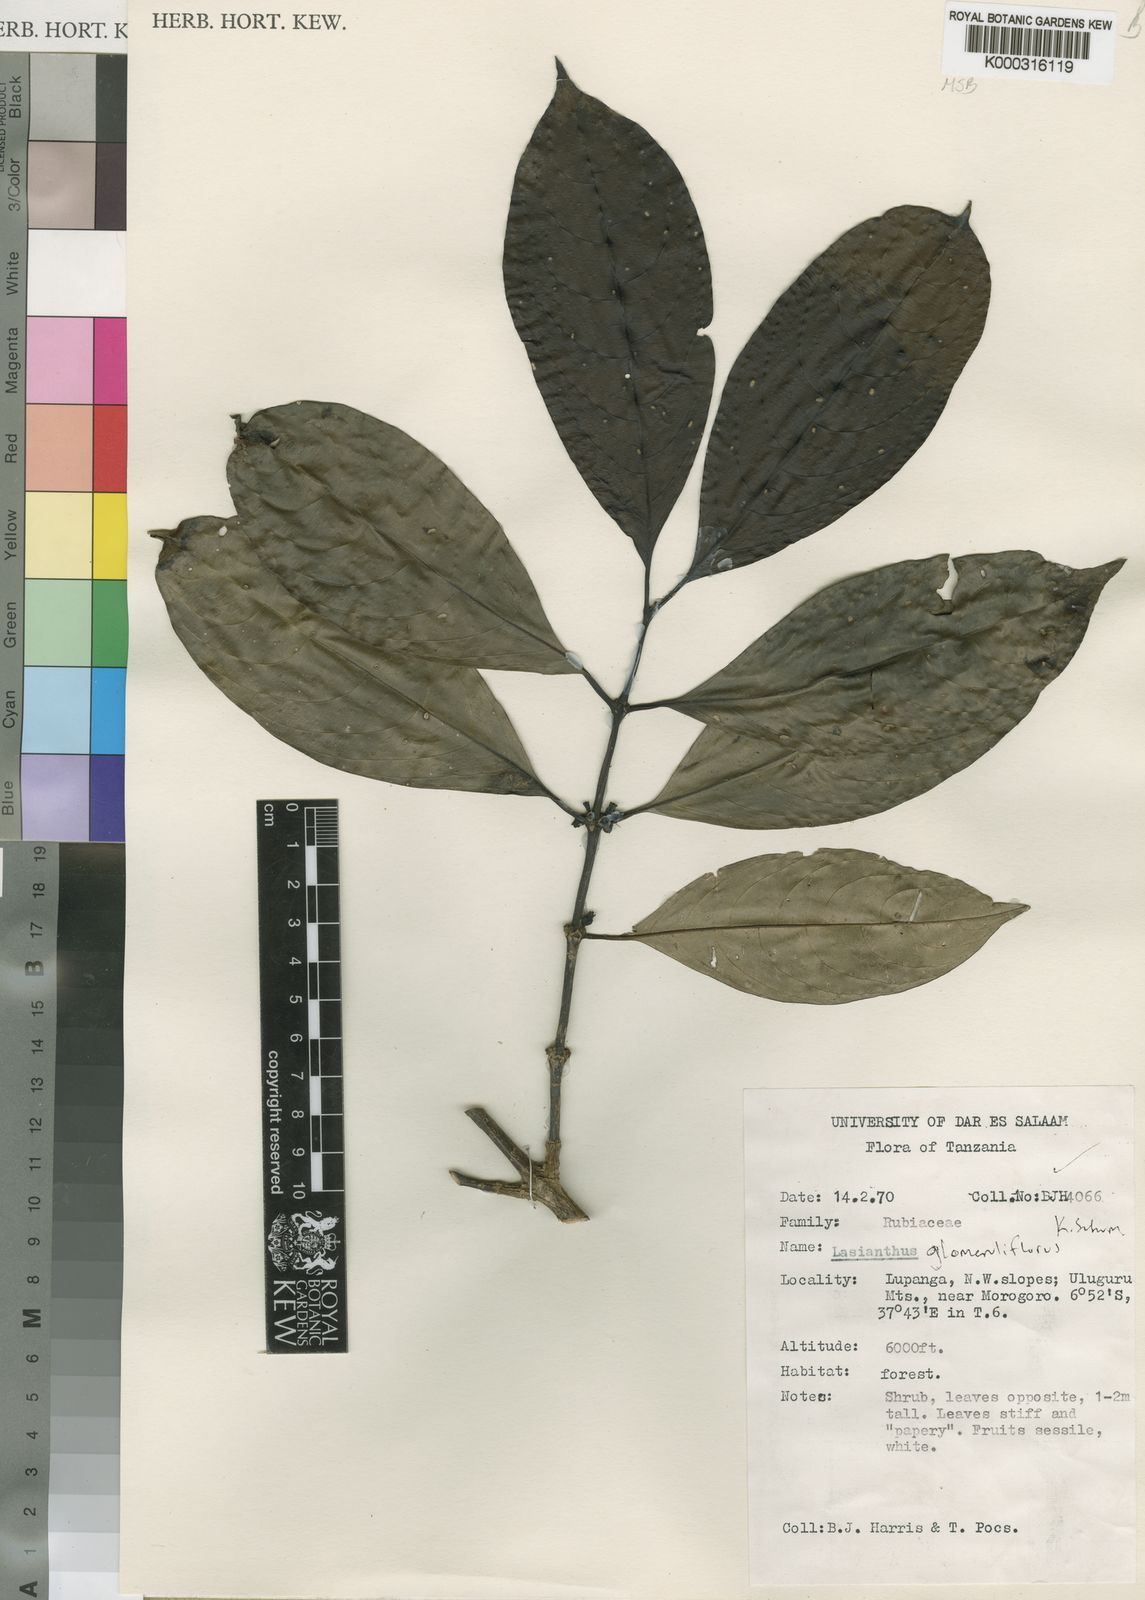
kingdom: Plantae
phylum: Tracheophyta
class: Magnoliopsida
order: Gentianales
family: Rubiaceae
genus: Lasianthus
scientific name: Lasianthus glomeruliflorus
